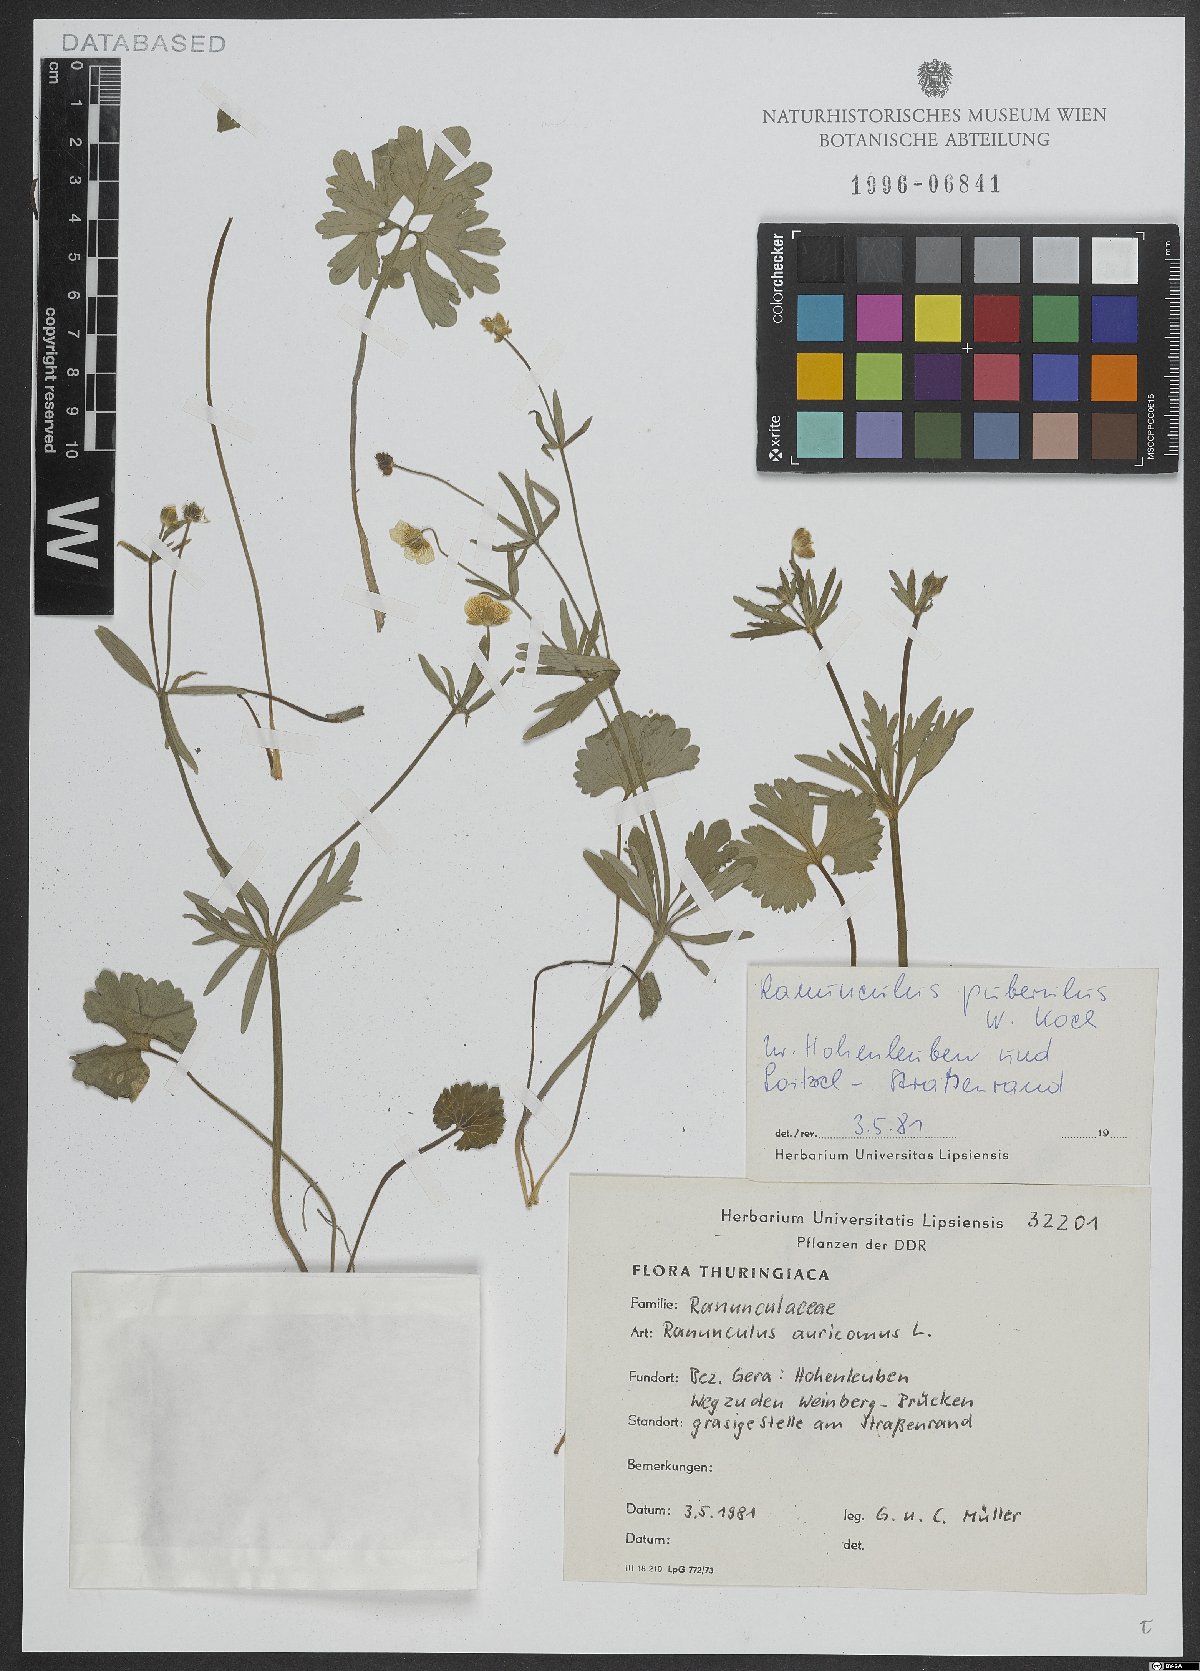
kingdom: Plantae
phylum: Tracheophyta
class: Magnoliopsida
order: Ranunculales
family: Ranunculaceae
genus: Ranunculus
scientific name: Ranunculus puberulus
